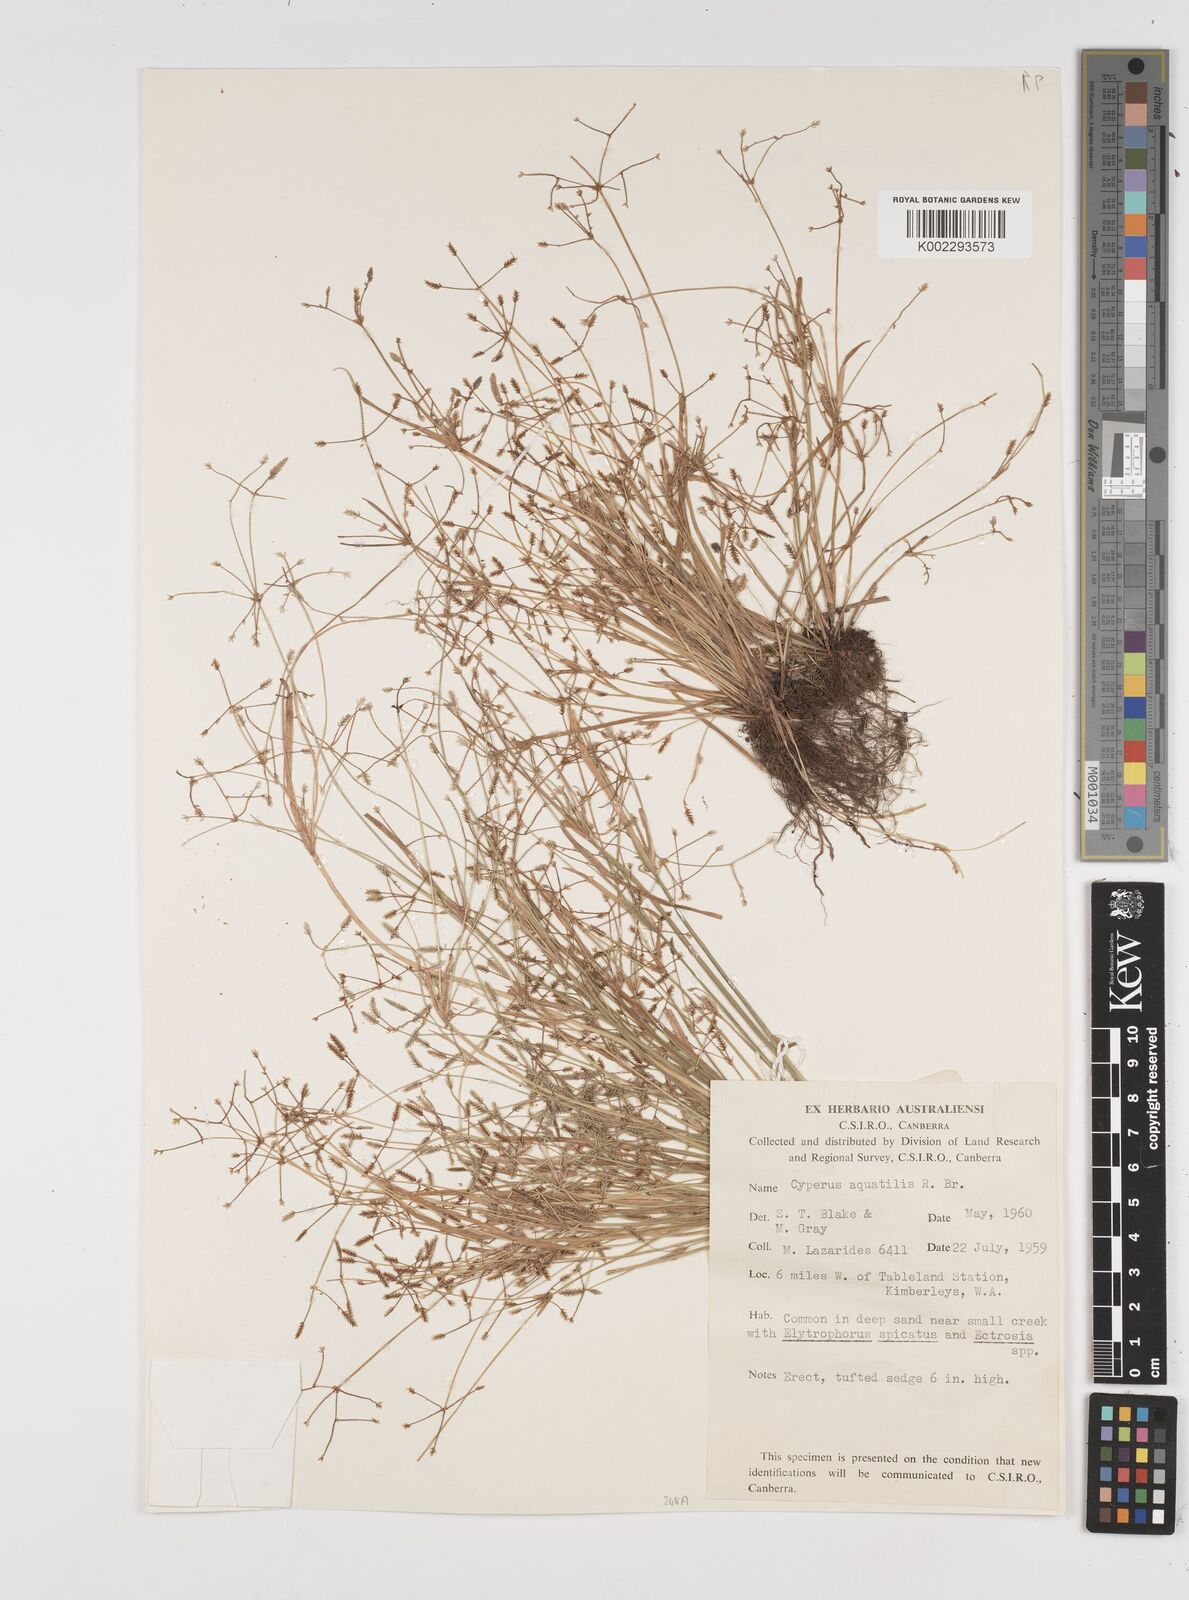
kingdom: Plantae
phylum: Tracheophyta
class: Liliopsida
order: Poales
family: Cyperaceae
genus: Cyperus
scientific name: Cyperus aquatilis
